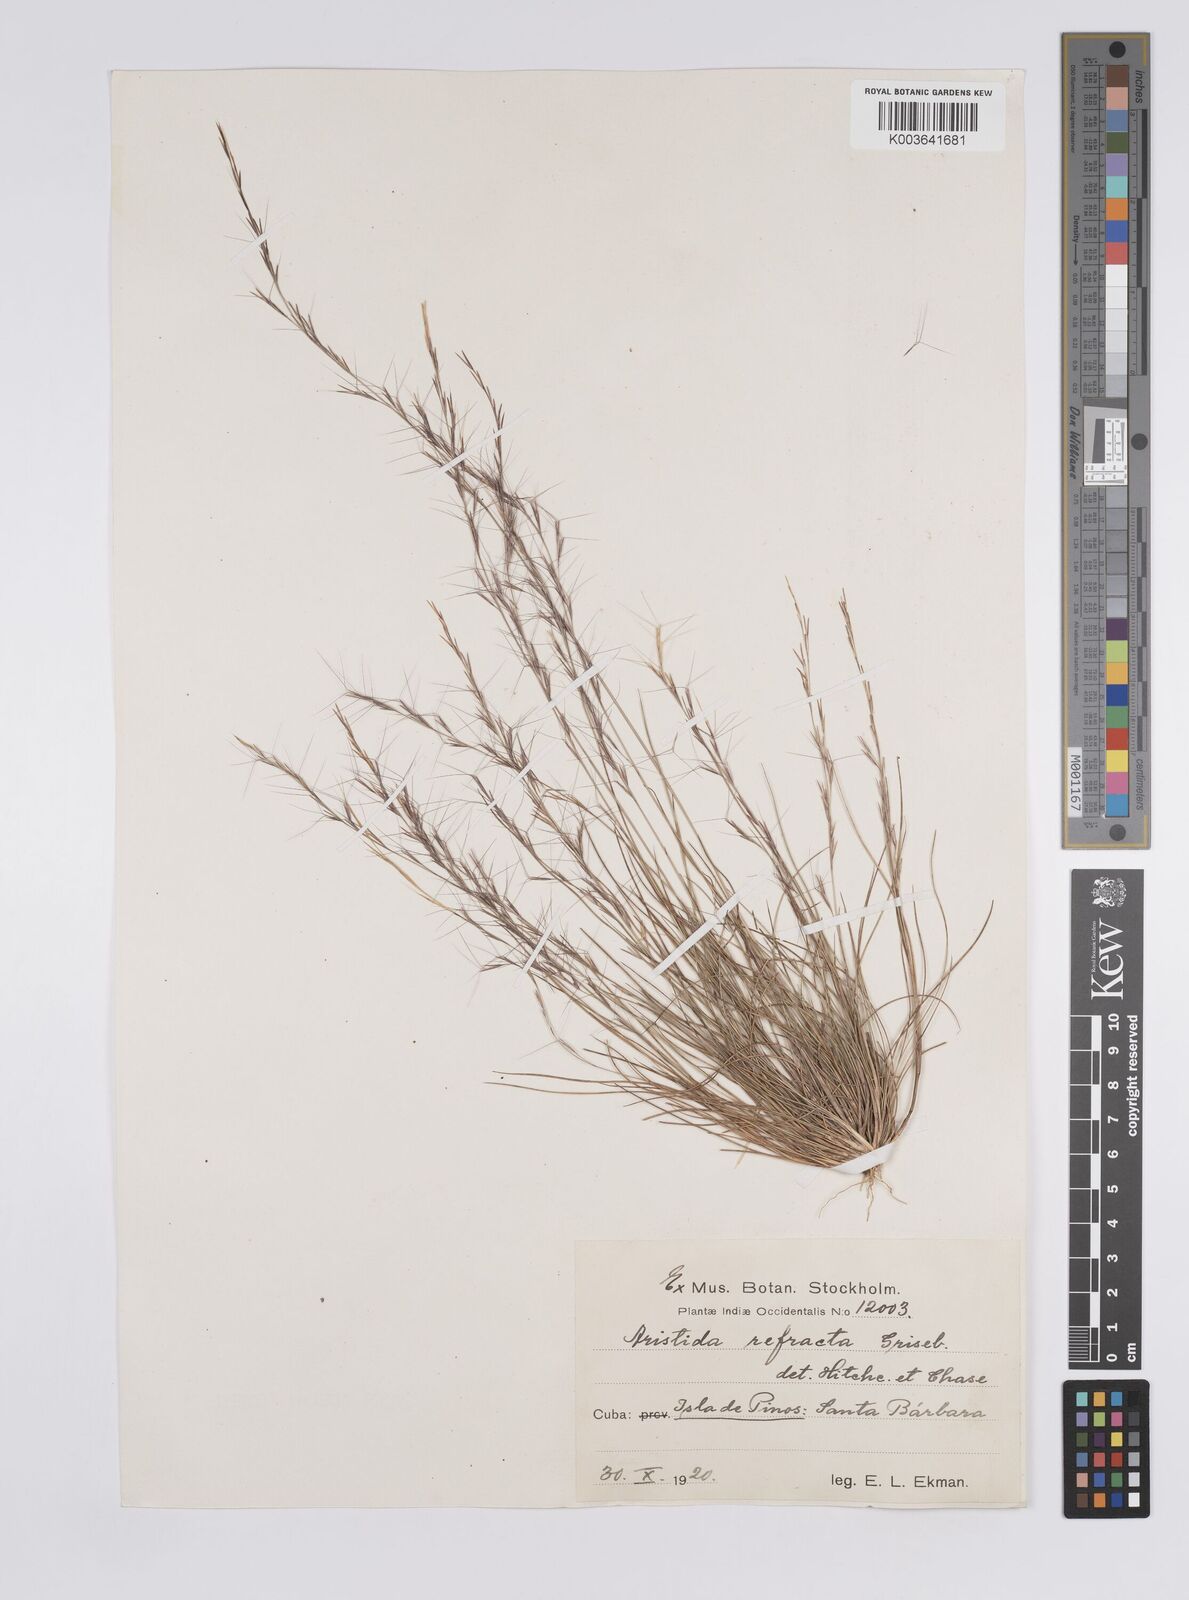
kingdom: Plantae
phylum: Tracheophyta
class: Liliopsida
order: Poales
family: Poaceae
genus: Aristida
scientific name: Aristida refracta
